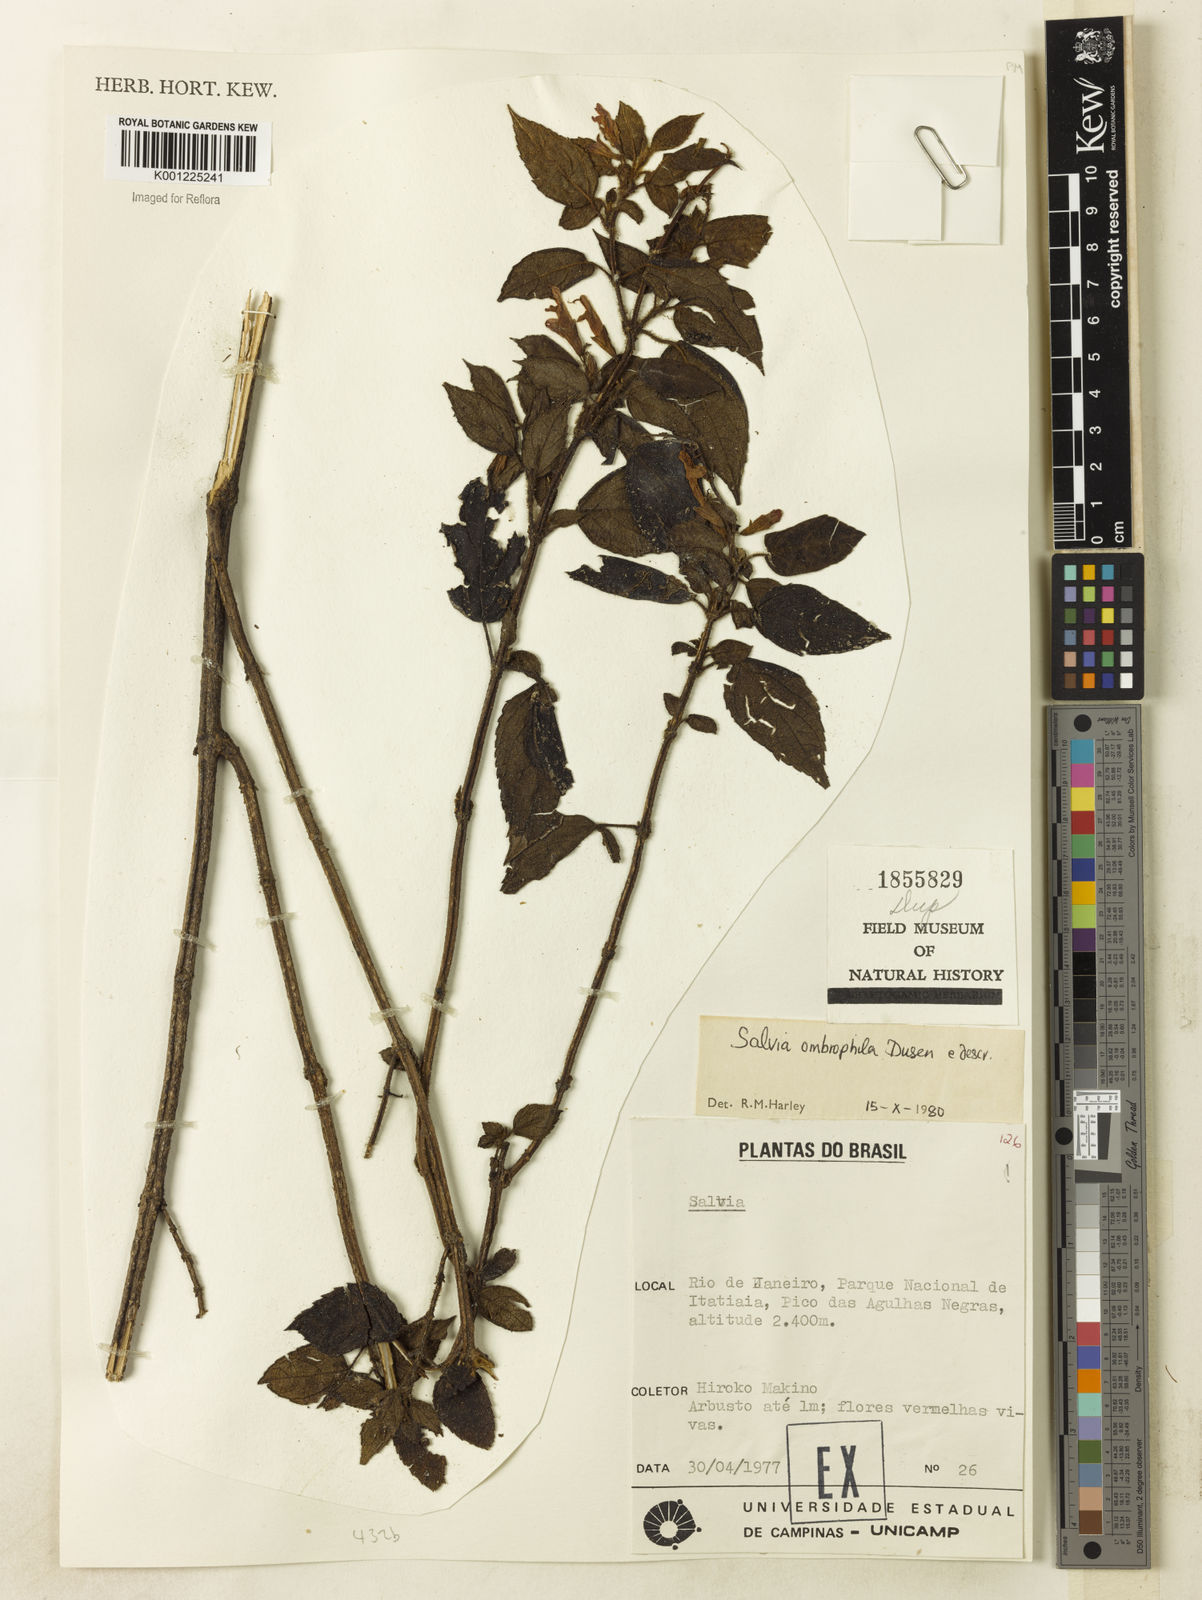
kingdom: Plantae
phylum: Tracheophyta
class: Magnoliopsida
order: Lamiales
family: Lamiaceae
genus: Salvia
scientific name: Salvia
